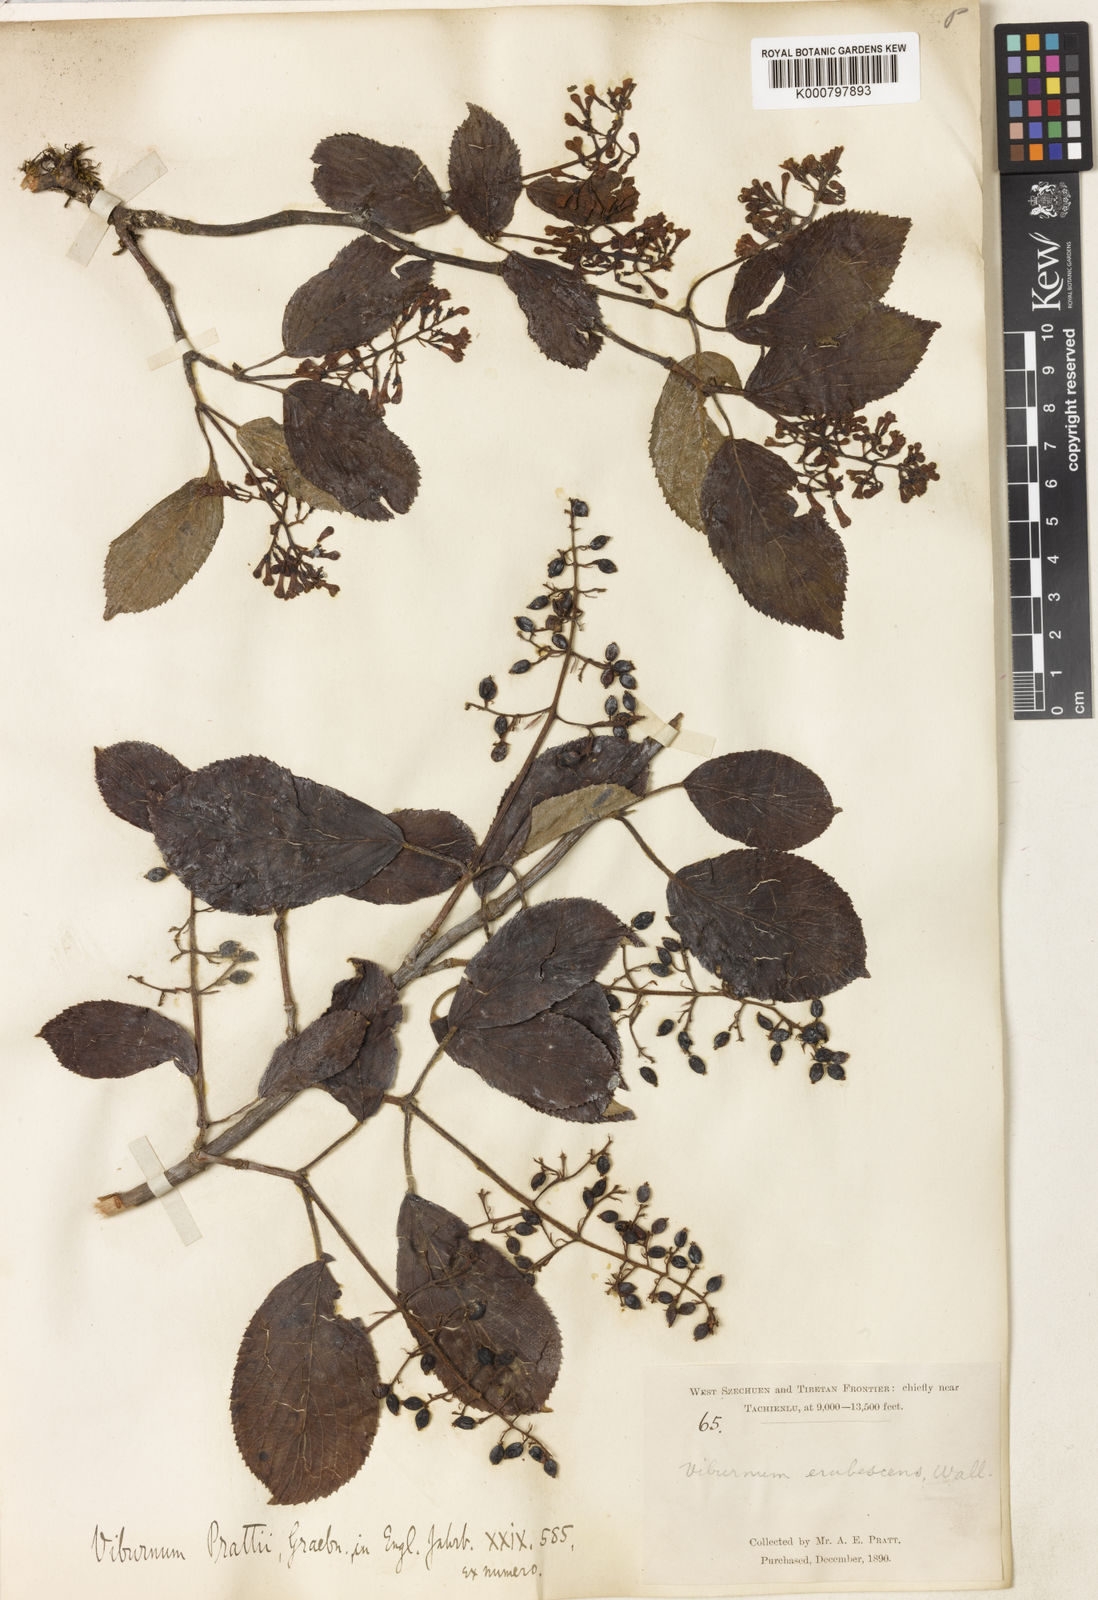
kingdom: Plantae
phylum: Tracheophyta
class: Magnoliopsida
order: Dipsacales
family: Viburnaceae
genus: Viburnum
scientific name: Viburnum
